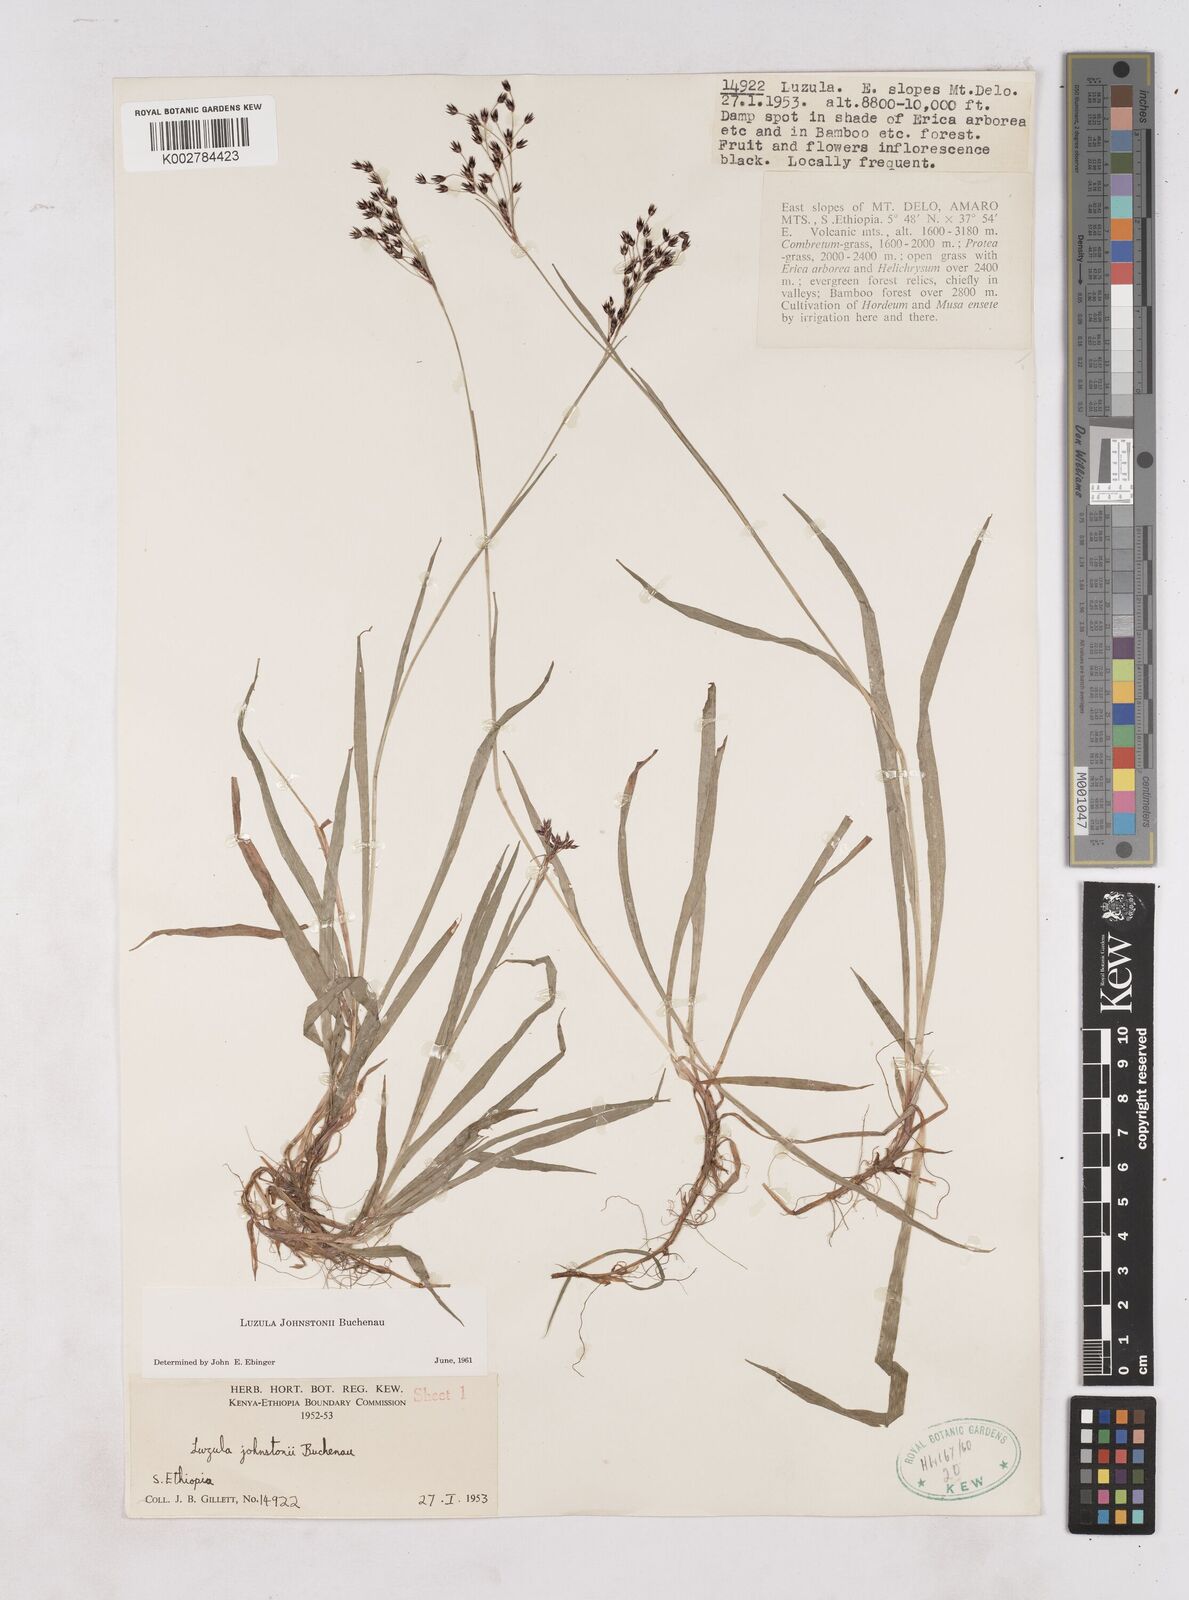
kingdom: Plantae
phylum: Tracheophyta
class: Liliopsida
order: Poales
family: Juncaceae
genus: Luzula
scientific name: Luzula johnstonii
